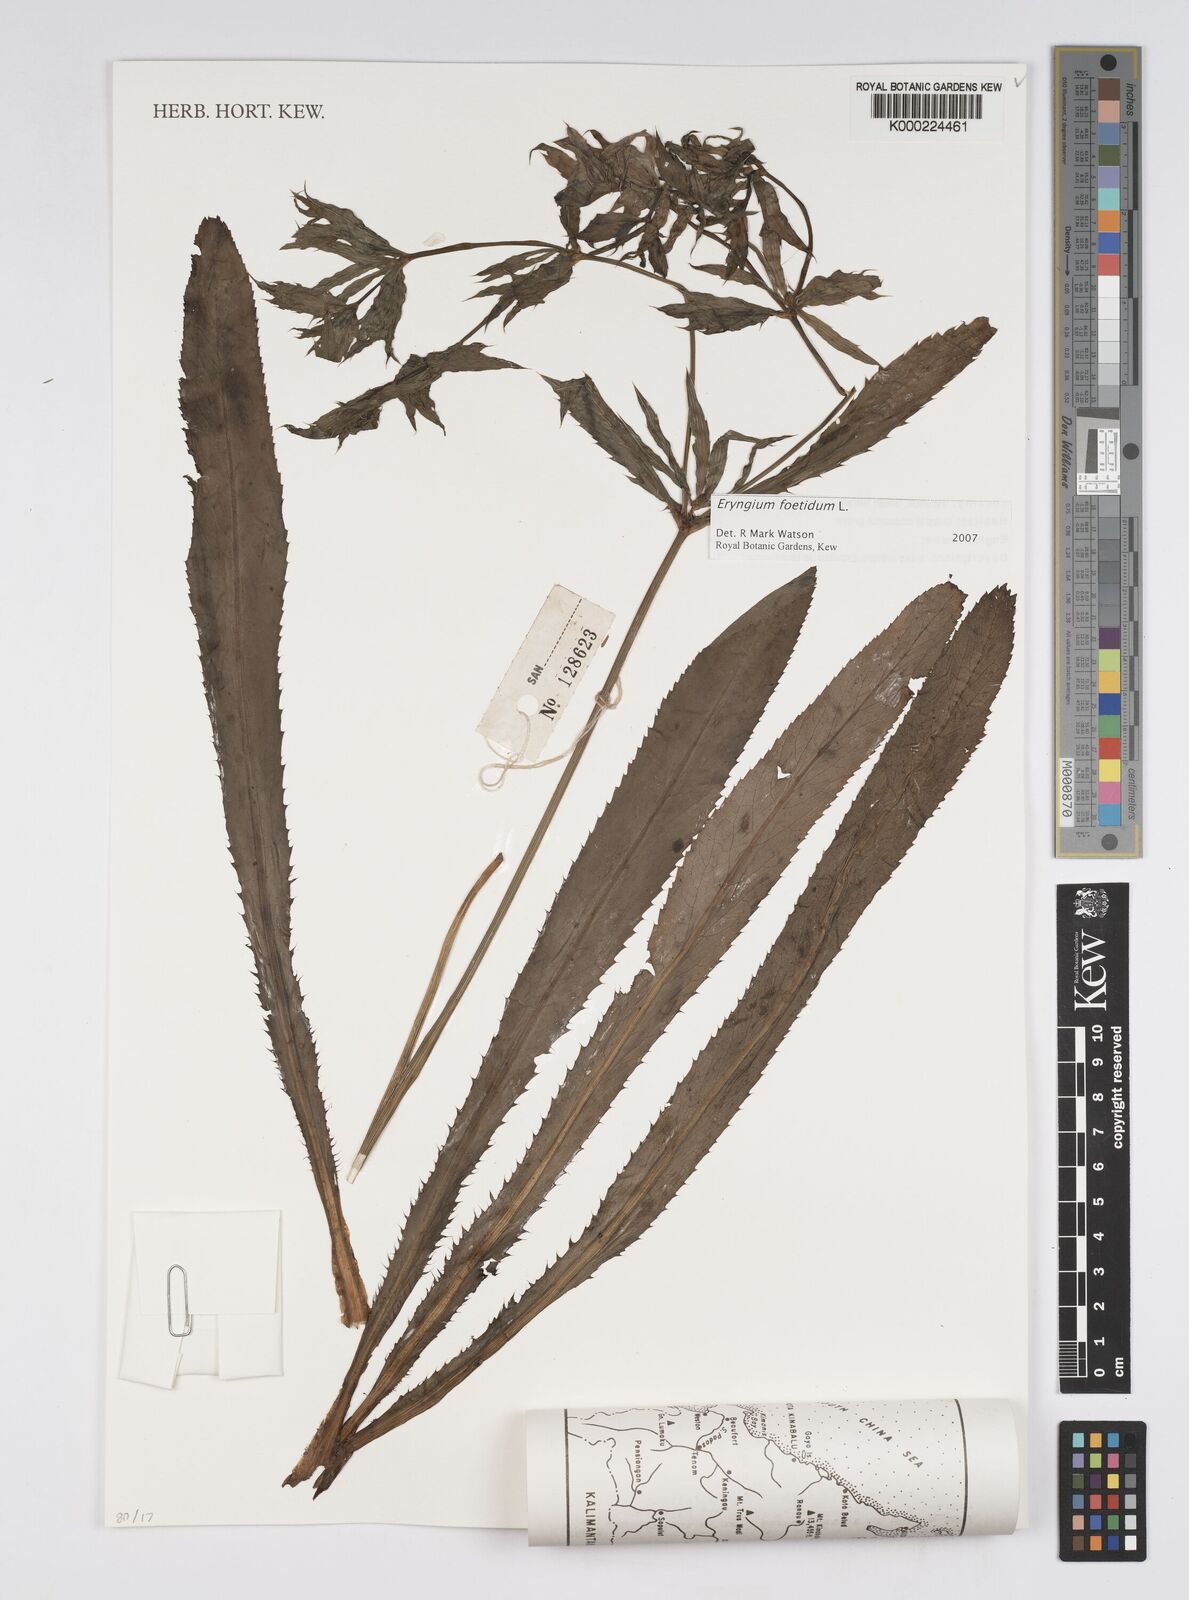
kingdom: Plantae
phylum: Tracheophyta
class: Magnoliopsida
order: Apiales
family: Apiaceae
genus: Eryngium
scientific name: Eryngium foetidum
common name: Fitweed
